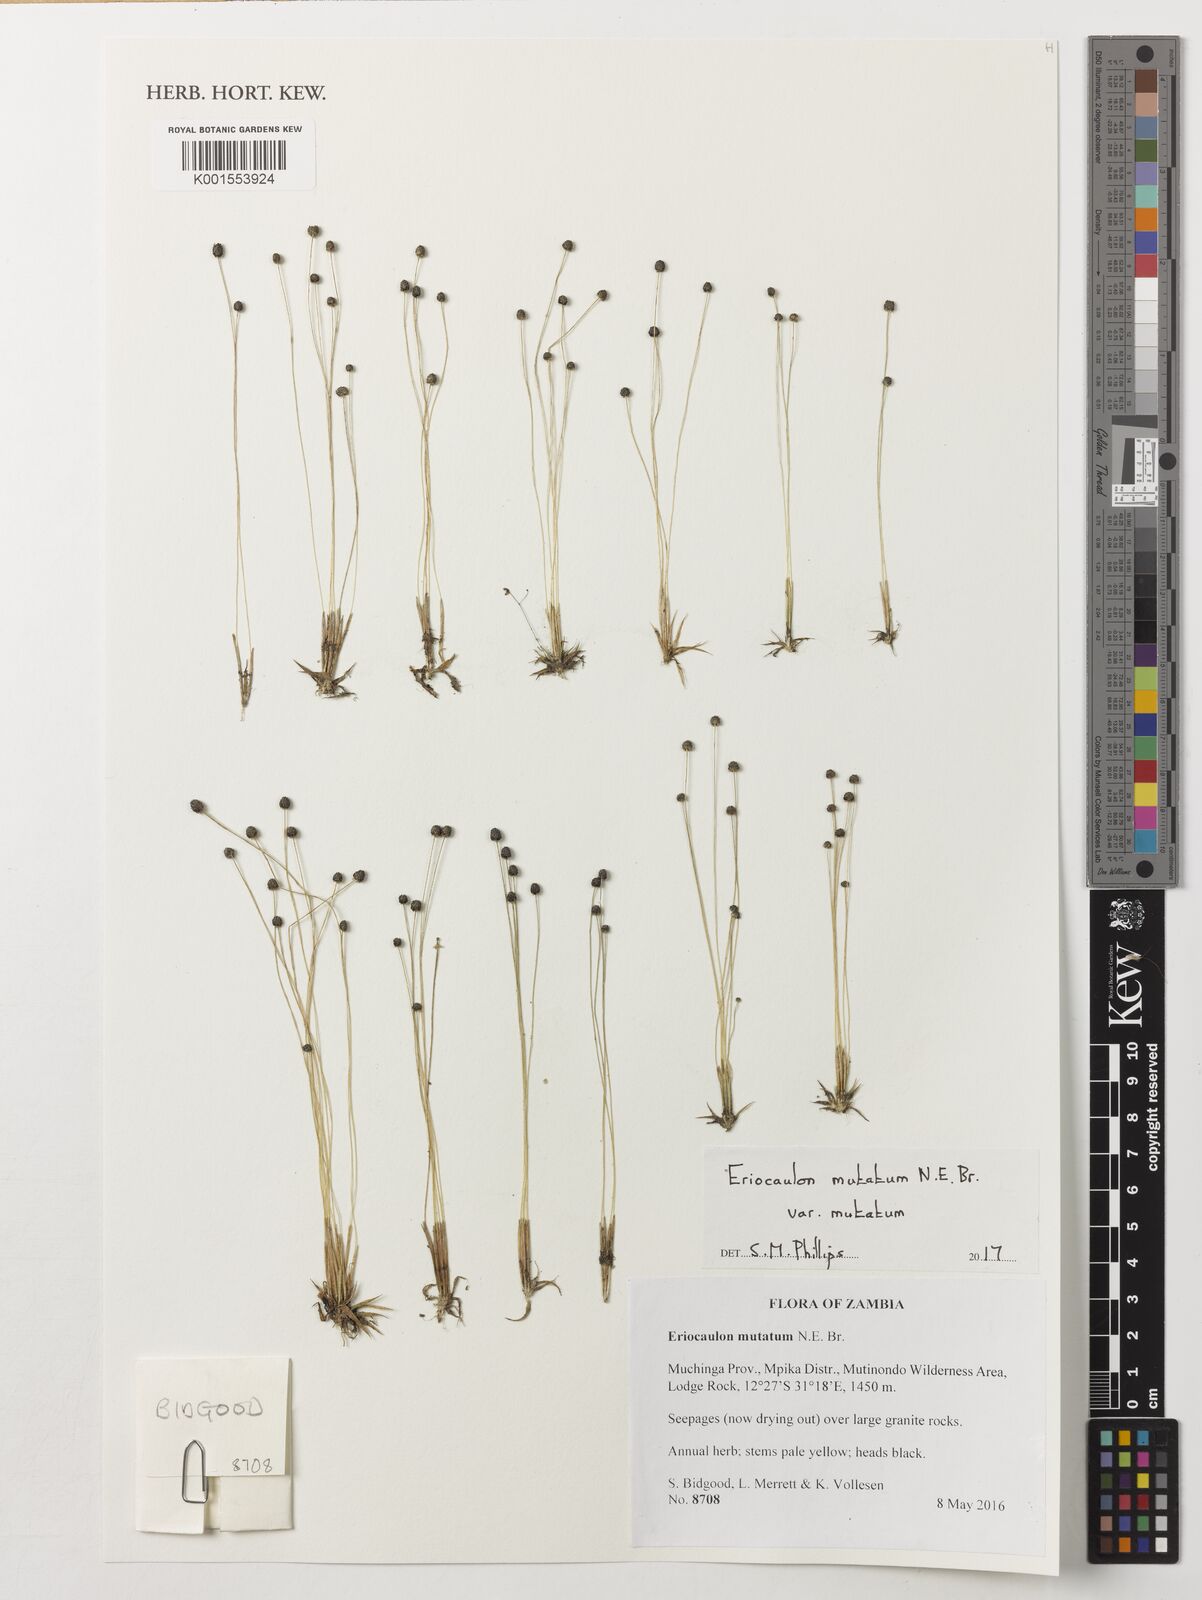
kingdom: Plantae
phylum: Tracheophyta
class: Liliopsida
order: Poales
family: Eriocaulaceae
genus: Eriocaulon
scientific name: Eriocaulon mutatum
